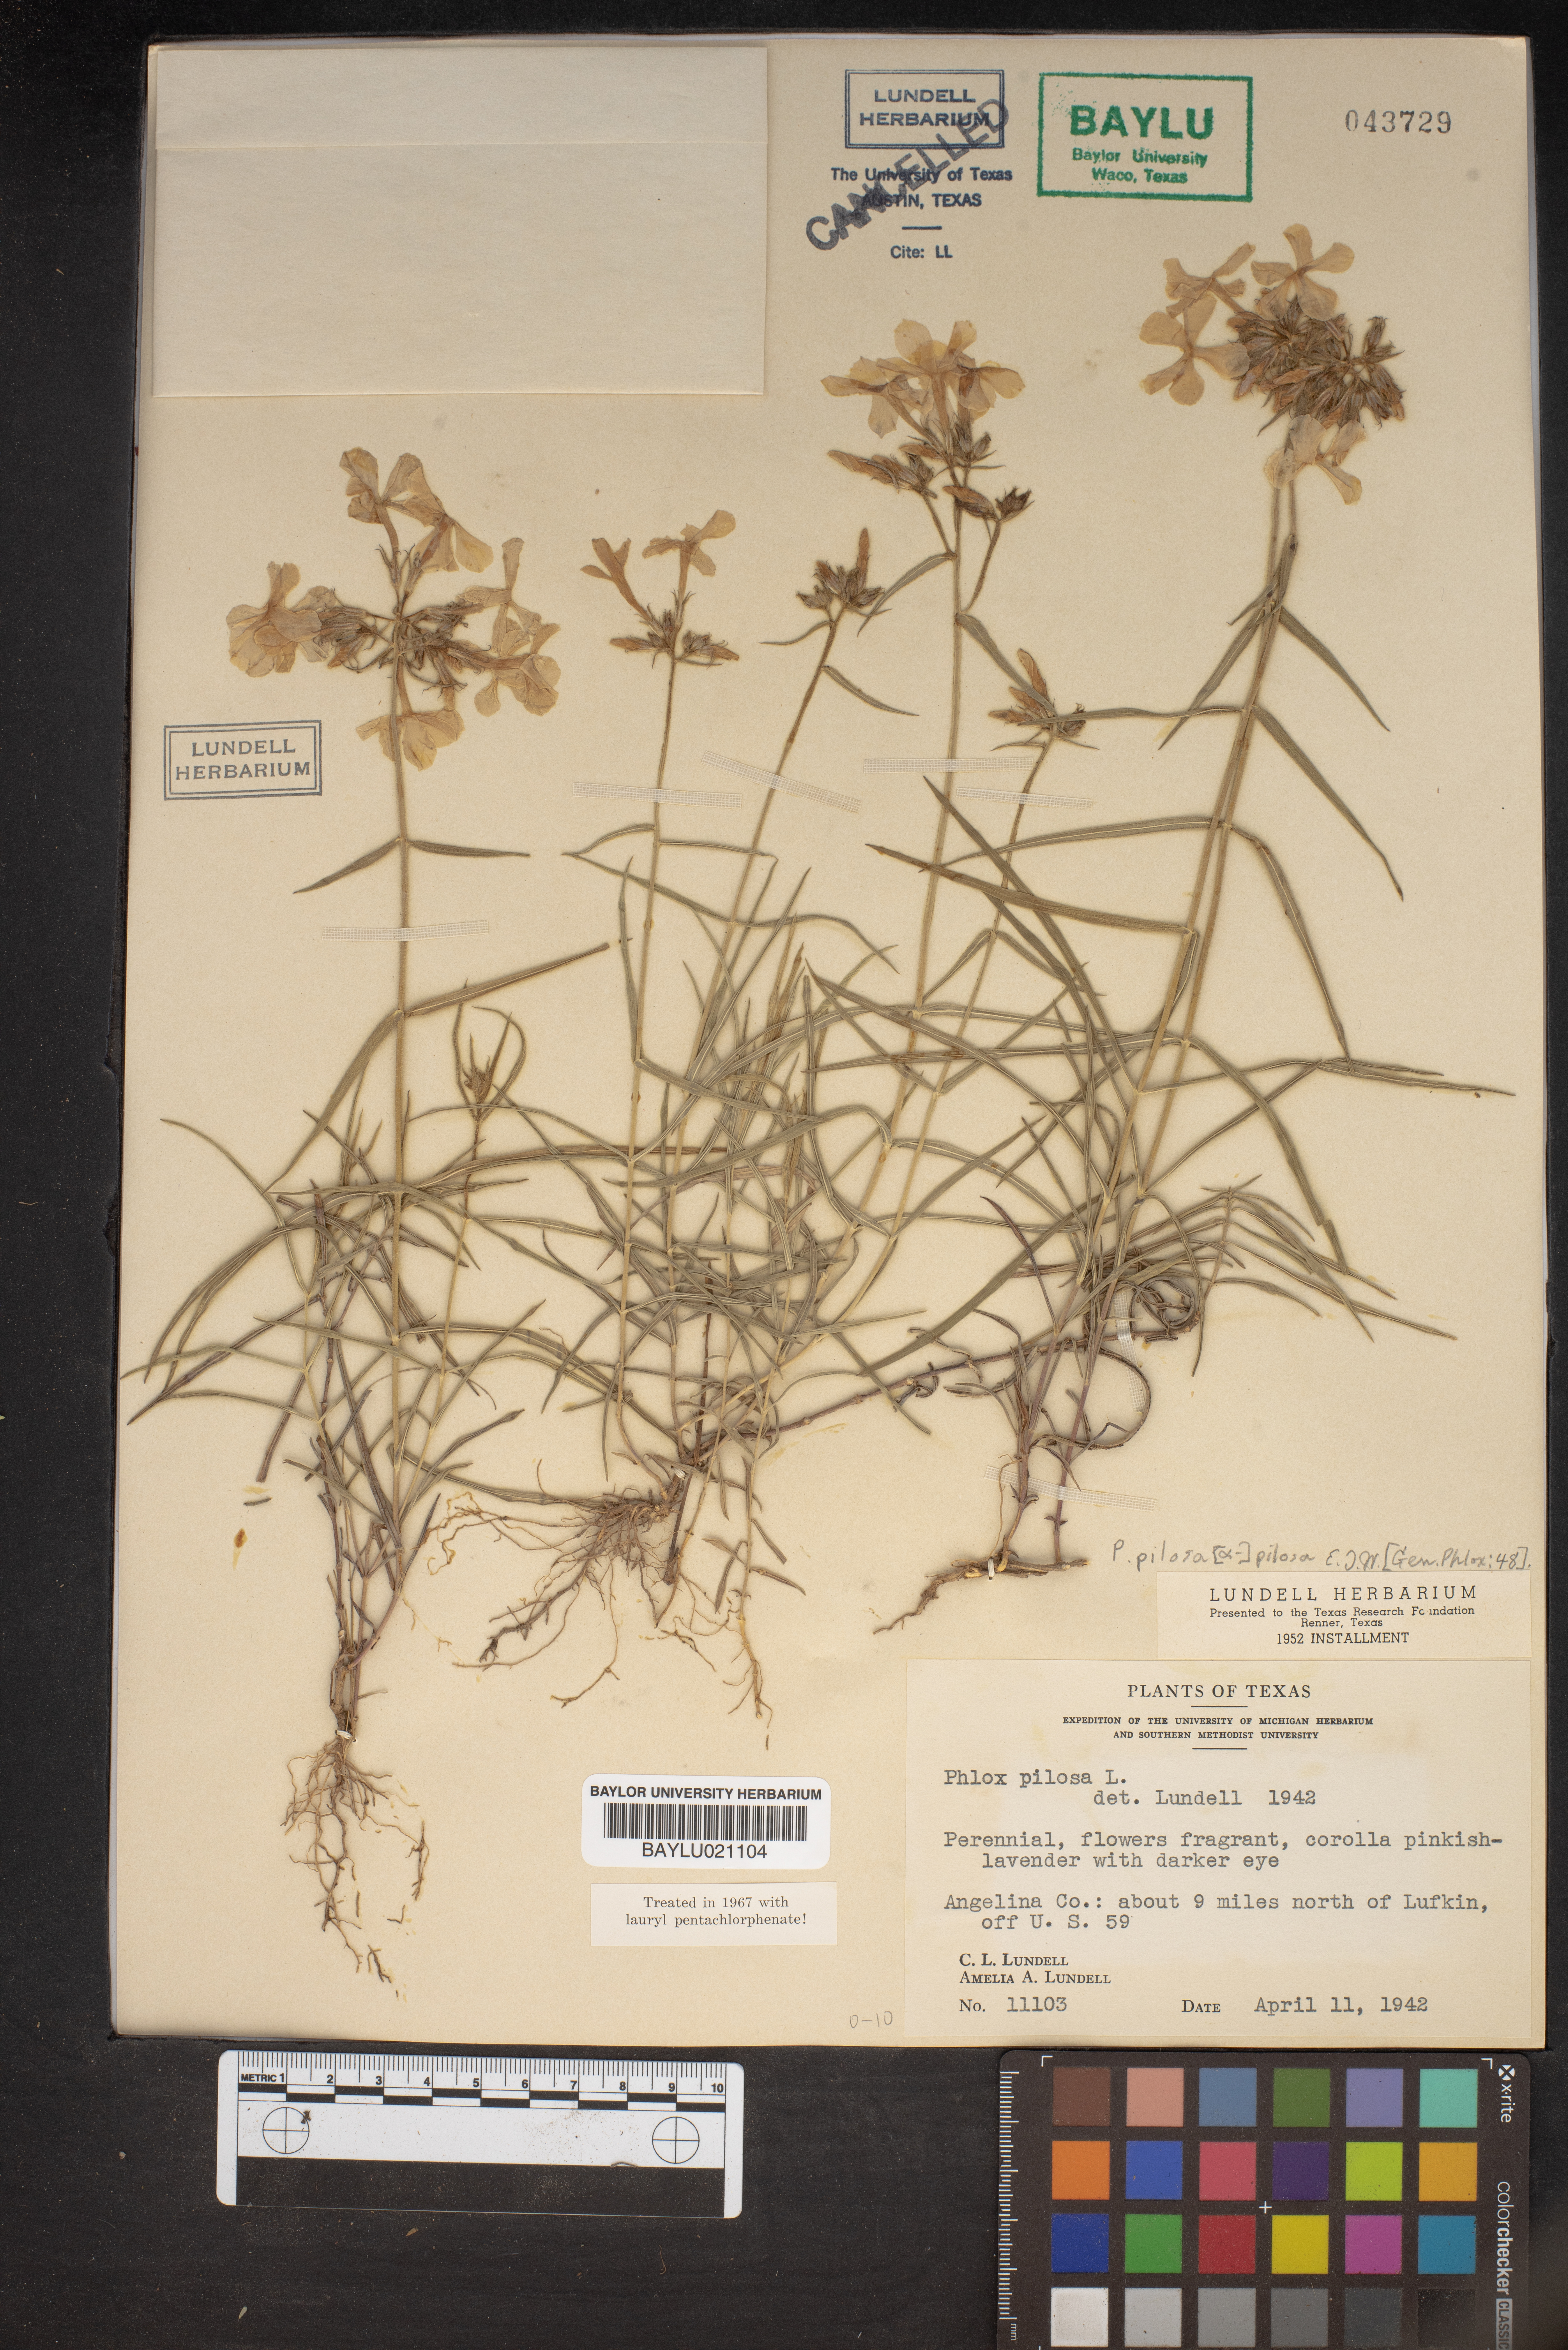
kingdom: Plantae
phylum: Tracheophyta
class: Magnoliopsida
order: Ericales
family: Polemoniaceae
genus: Phlox
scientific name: Phlox pilosa
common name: Prairie phlox
